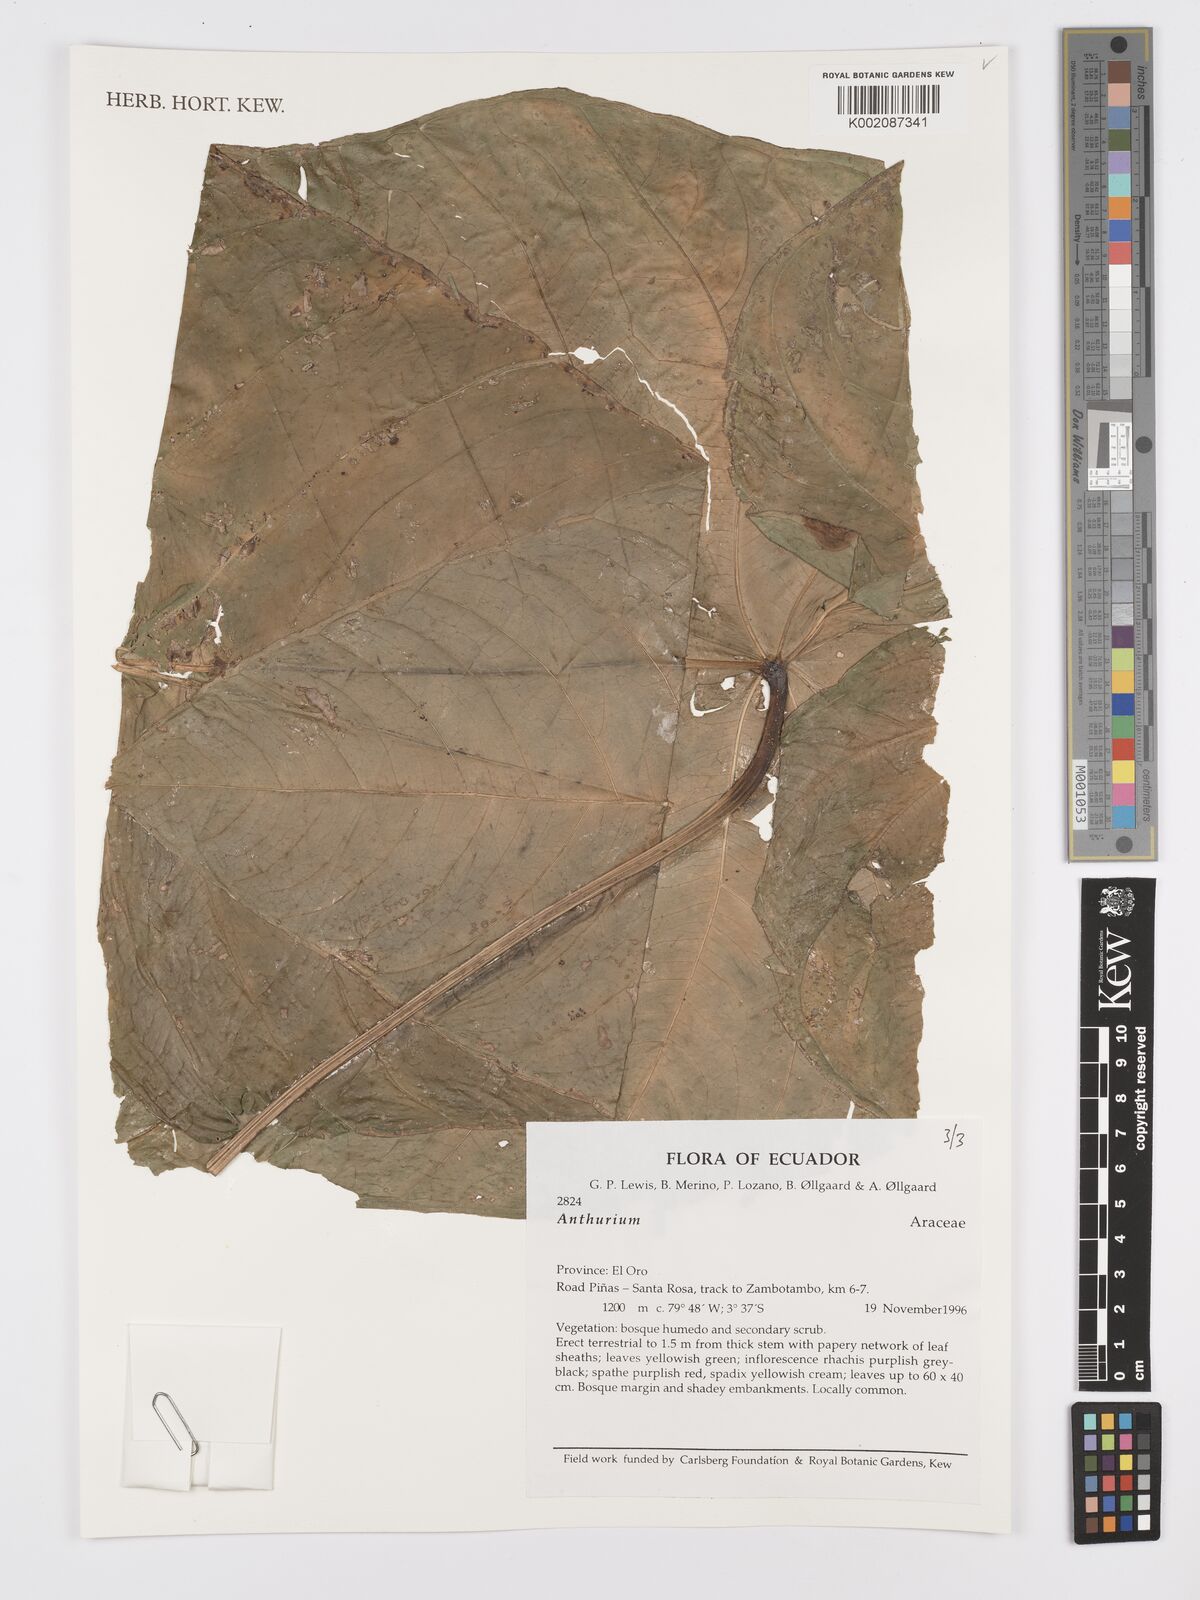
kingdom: Plantae
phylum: Tracheophyta
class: Liliopsida
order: Alismatales
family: Araceae
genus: Anthurium
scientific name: Anthurium
